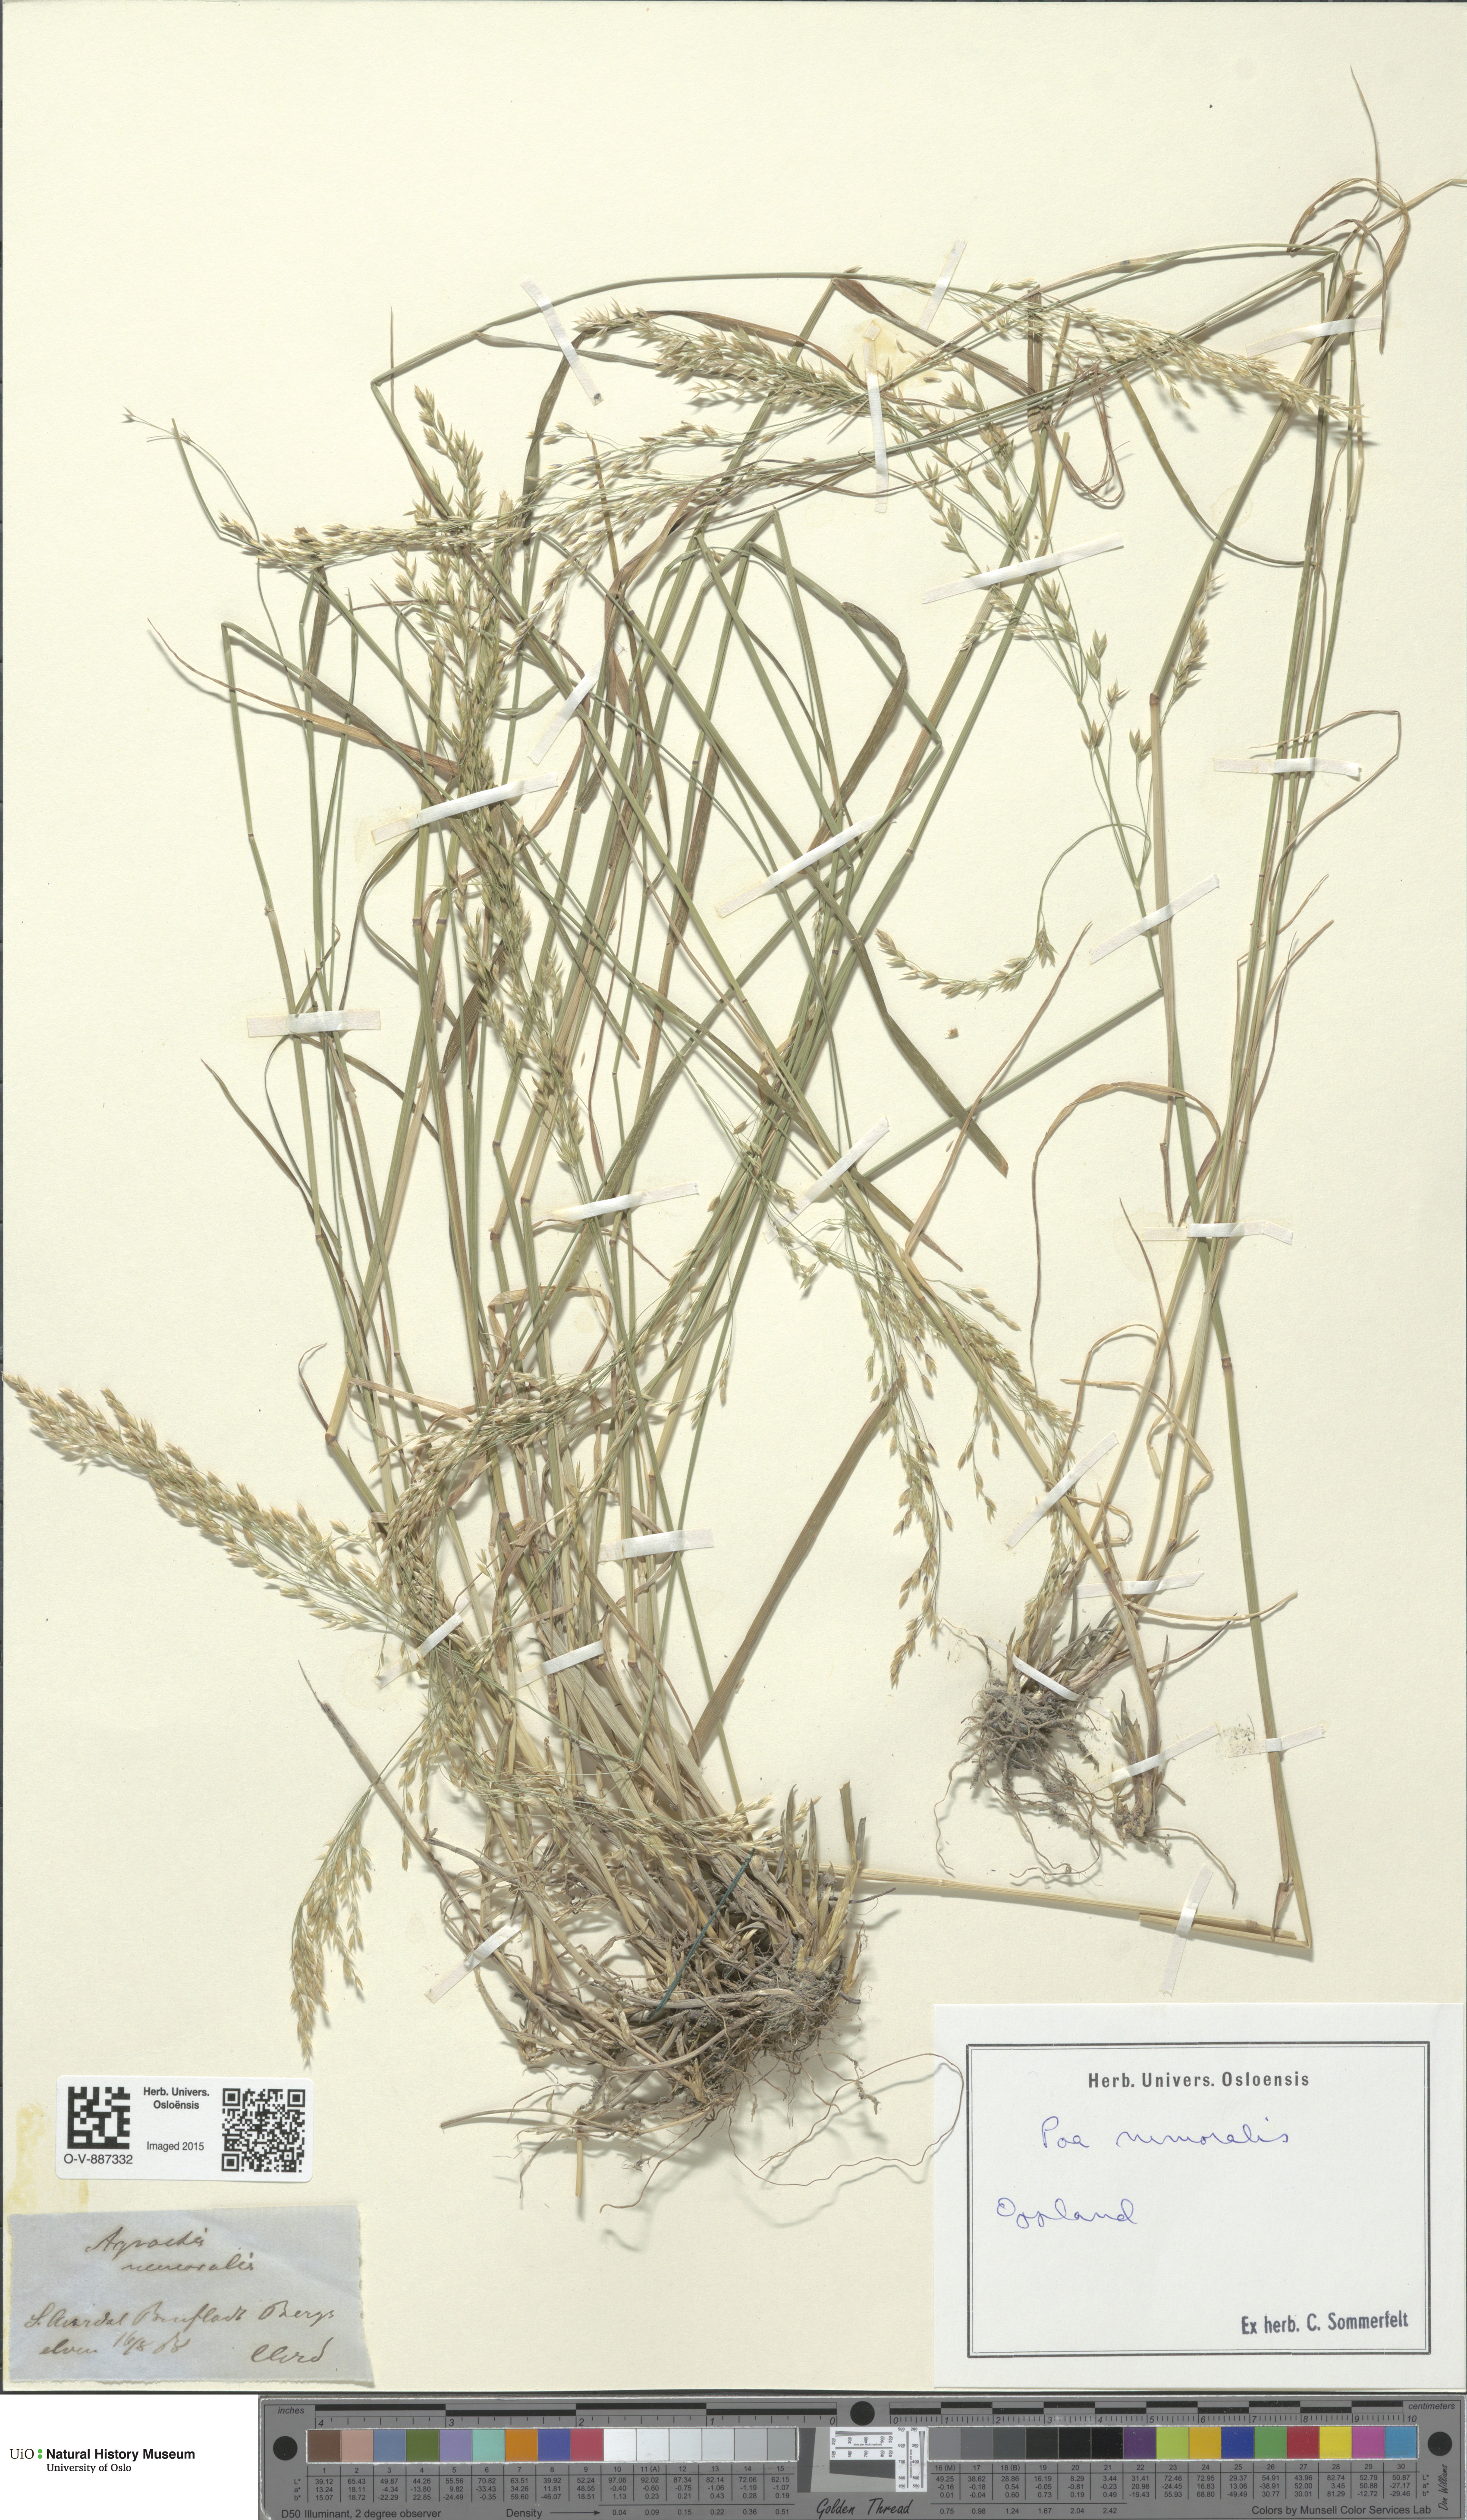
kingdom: Plantae
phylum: Tracheophyta
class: Liliopsida
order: Poales
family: Poaceae
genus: Poa
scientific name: Poa nemoralis
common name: Wood bluegrass
